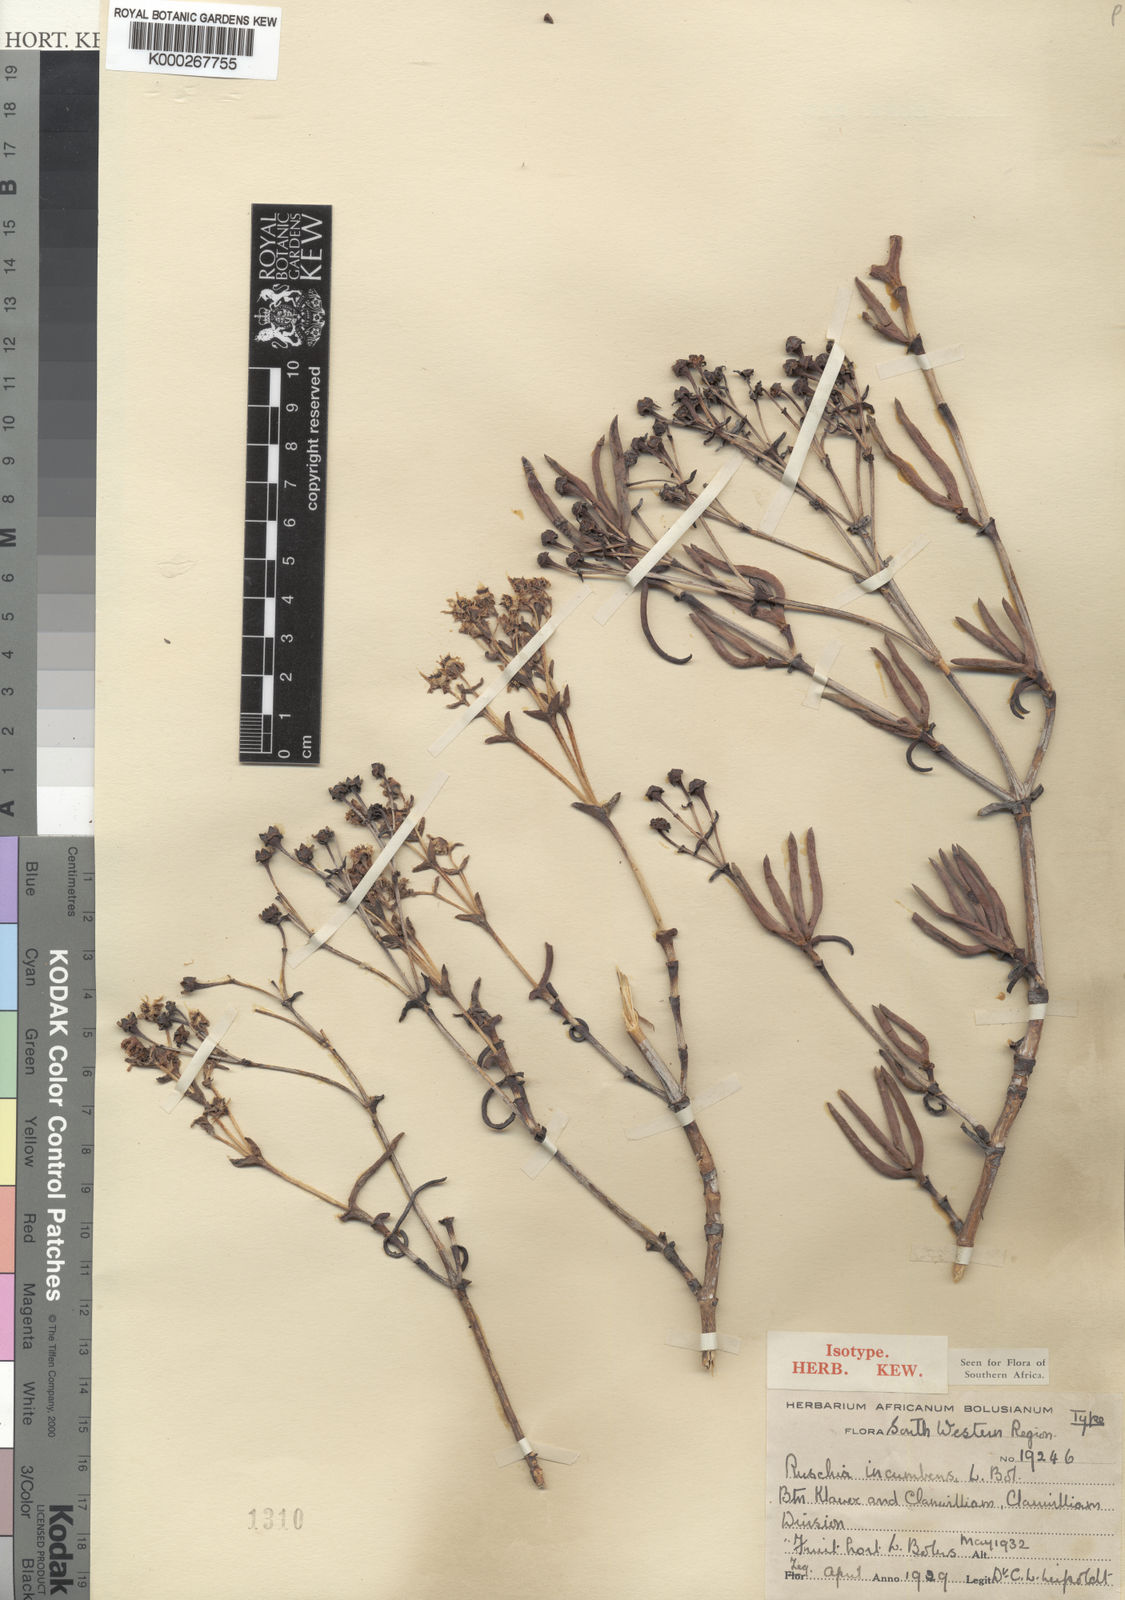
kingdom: Plantae
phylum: Tracheophyta
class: Magnoliopsida
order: Caryophyllales
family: Aizoaceae
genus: Phiambolia
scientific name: Phiambolia incumbens
